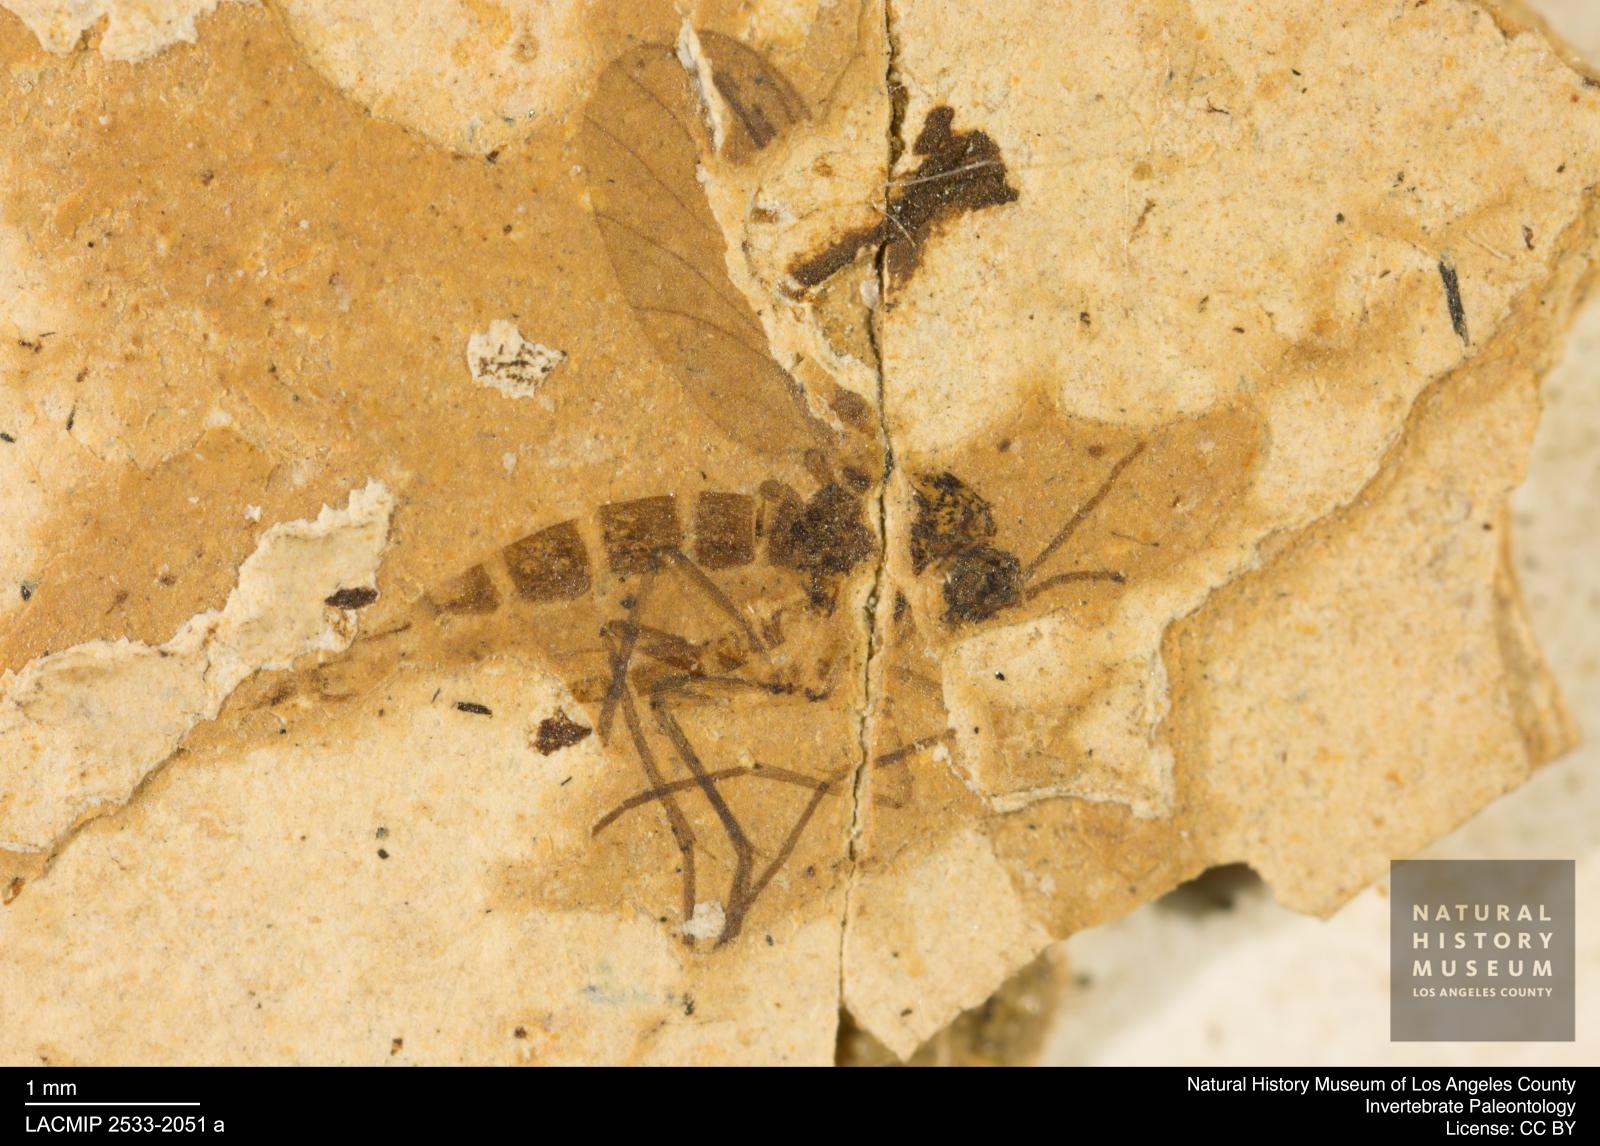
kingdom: Animalia
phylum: Arthropoda
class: Insecta
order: Diptera
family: Sciaridae
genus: Sciara
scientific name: Sciara atavina
